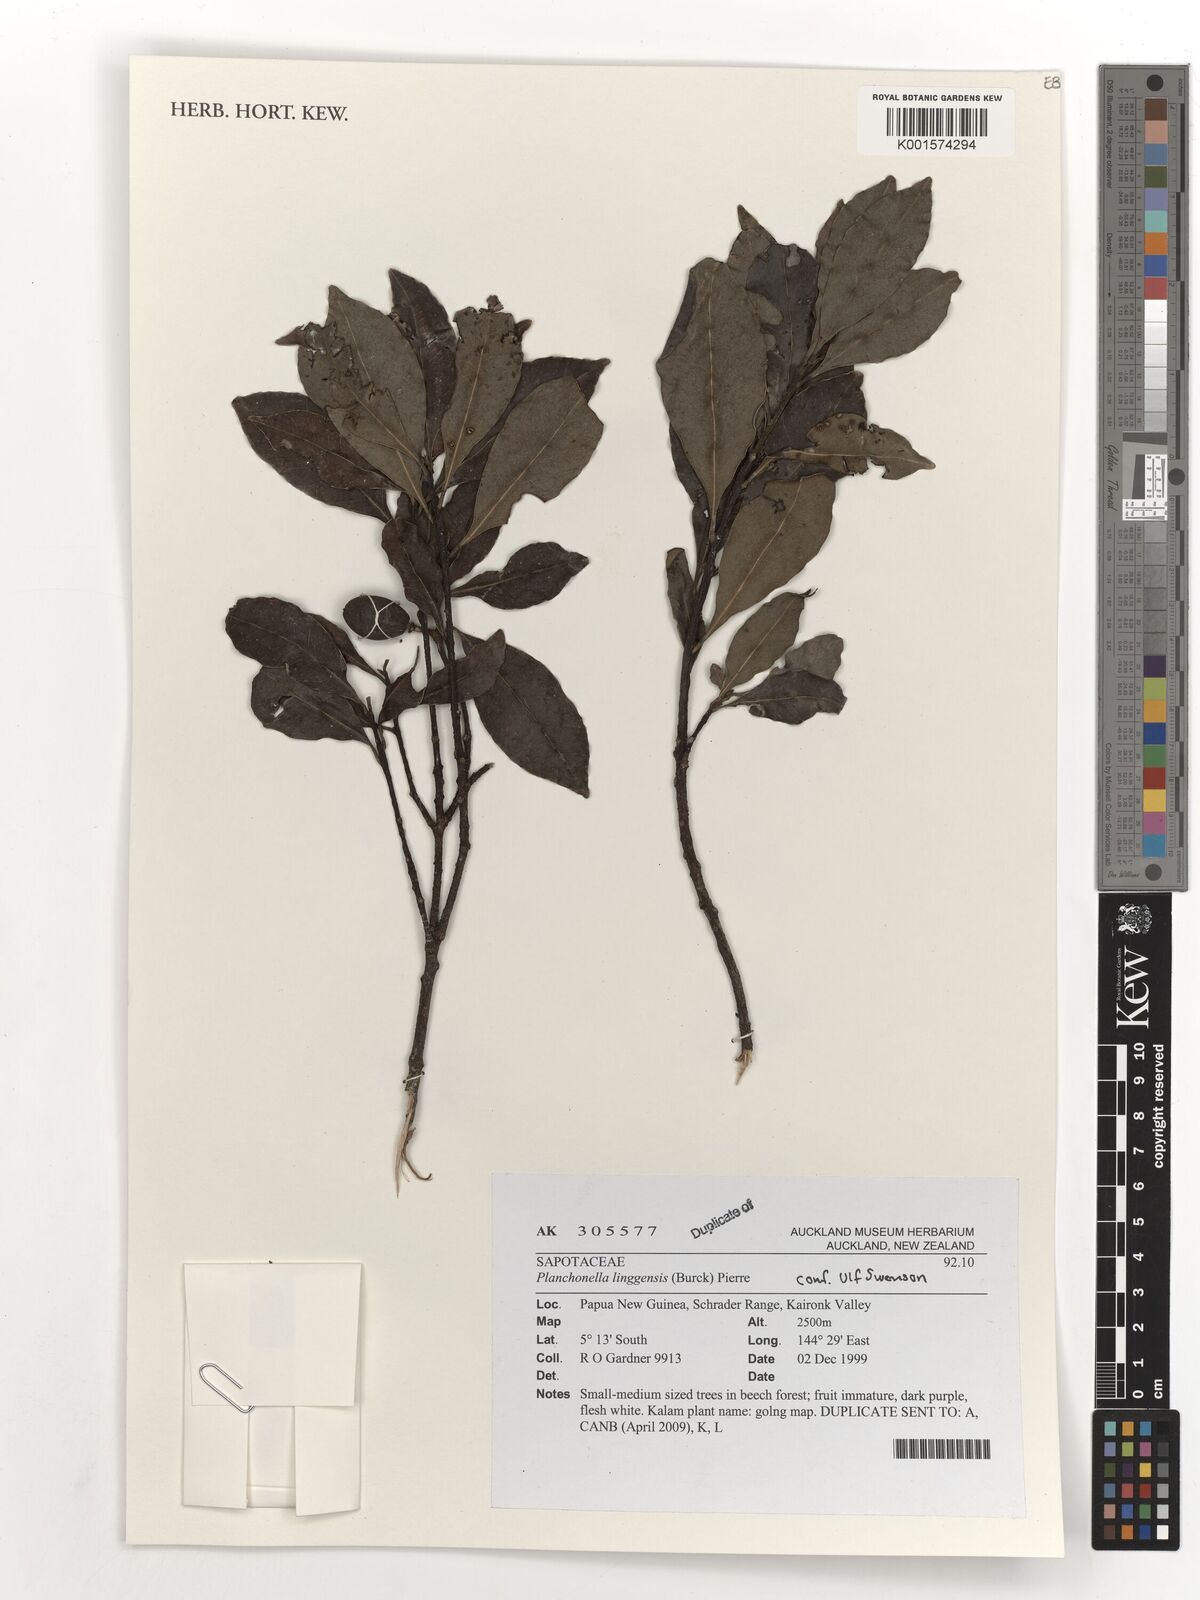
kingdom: Plantae
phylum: Tracheophyta
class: Magnoliopsida
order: Ericales
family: Sapotaceae
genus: Planchonella
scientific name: Planchonella chartacea
